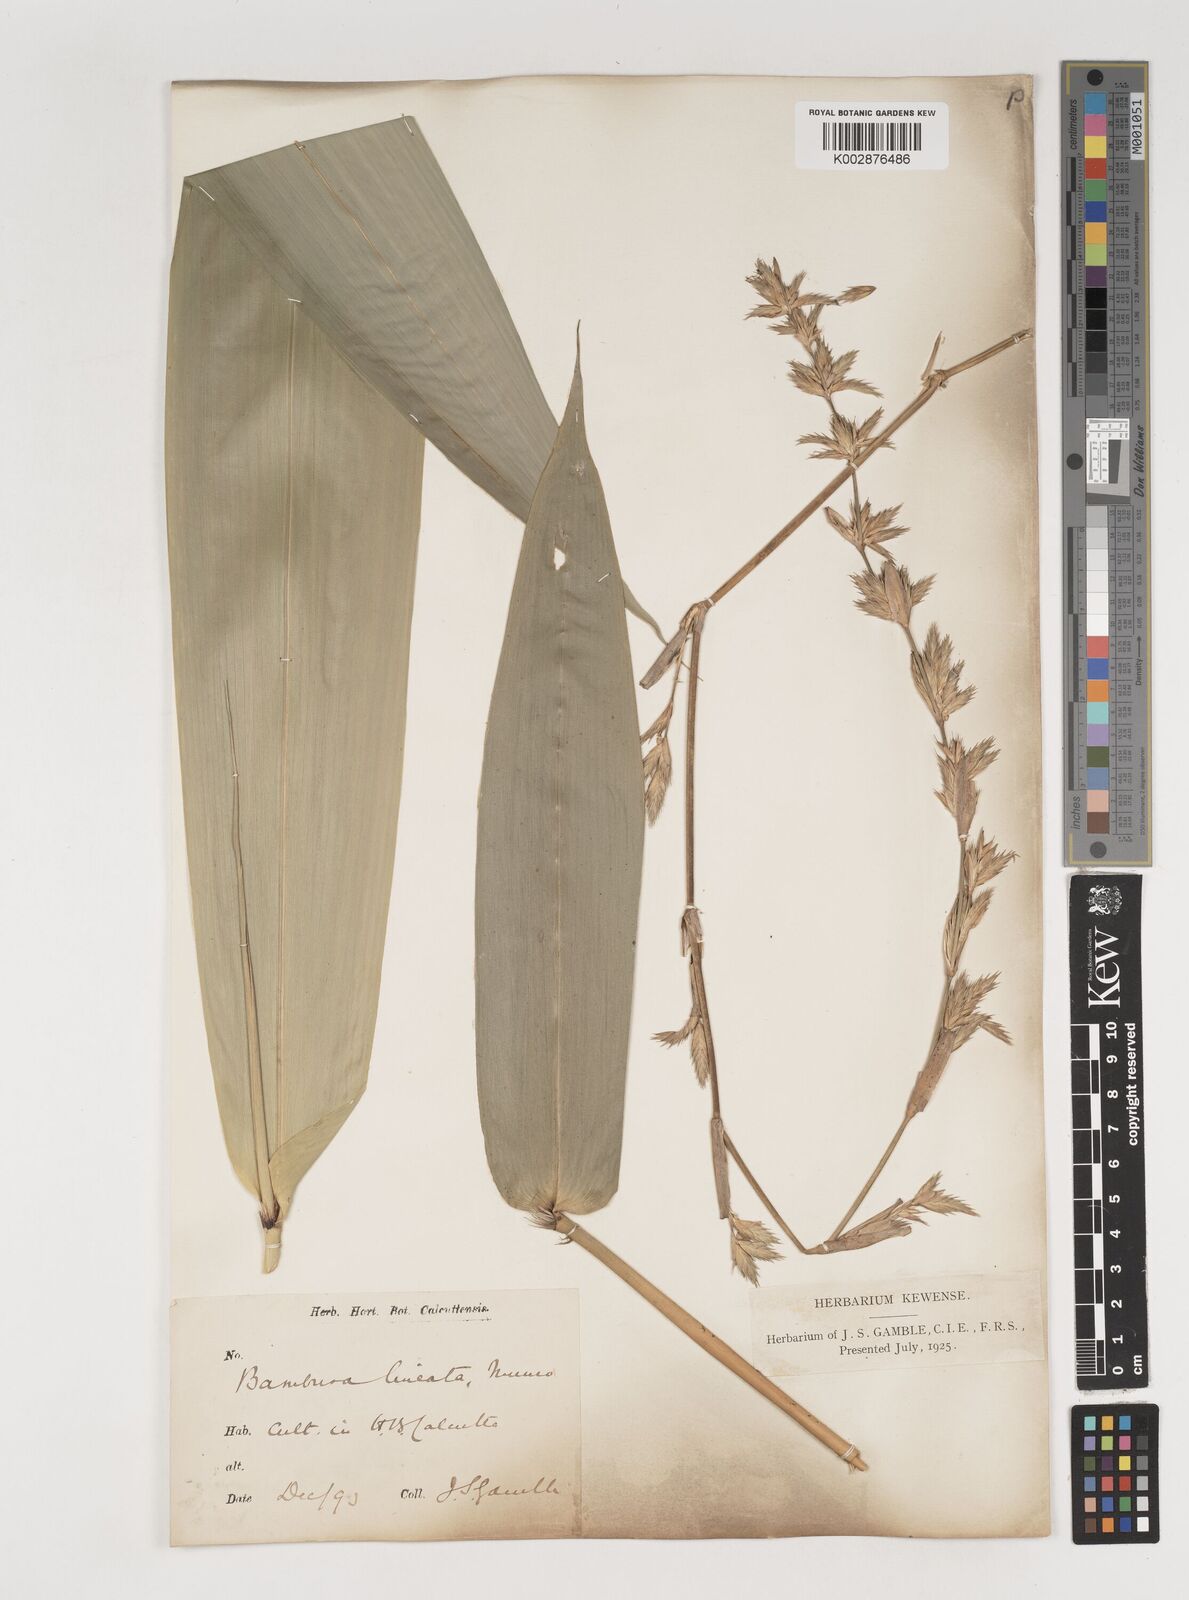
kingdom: Plantae
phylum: Tracheophyta
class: Liliopsida
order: Poales
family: Poaceae
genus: Neololeba
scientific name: Neololeba amahussana
